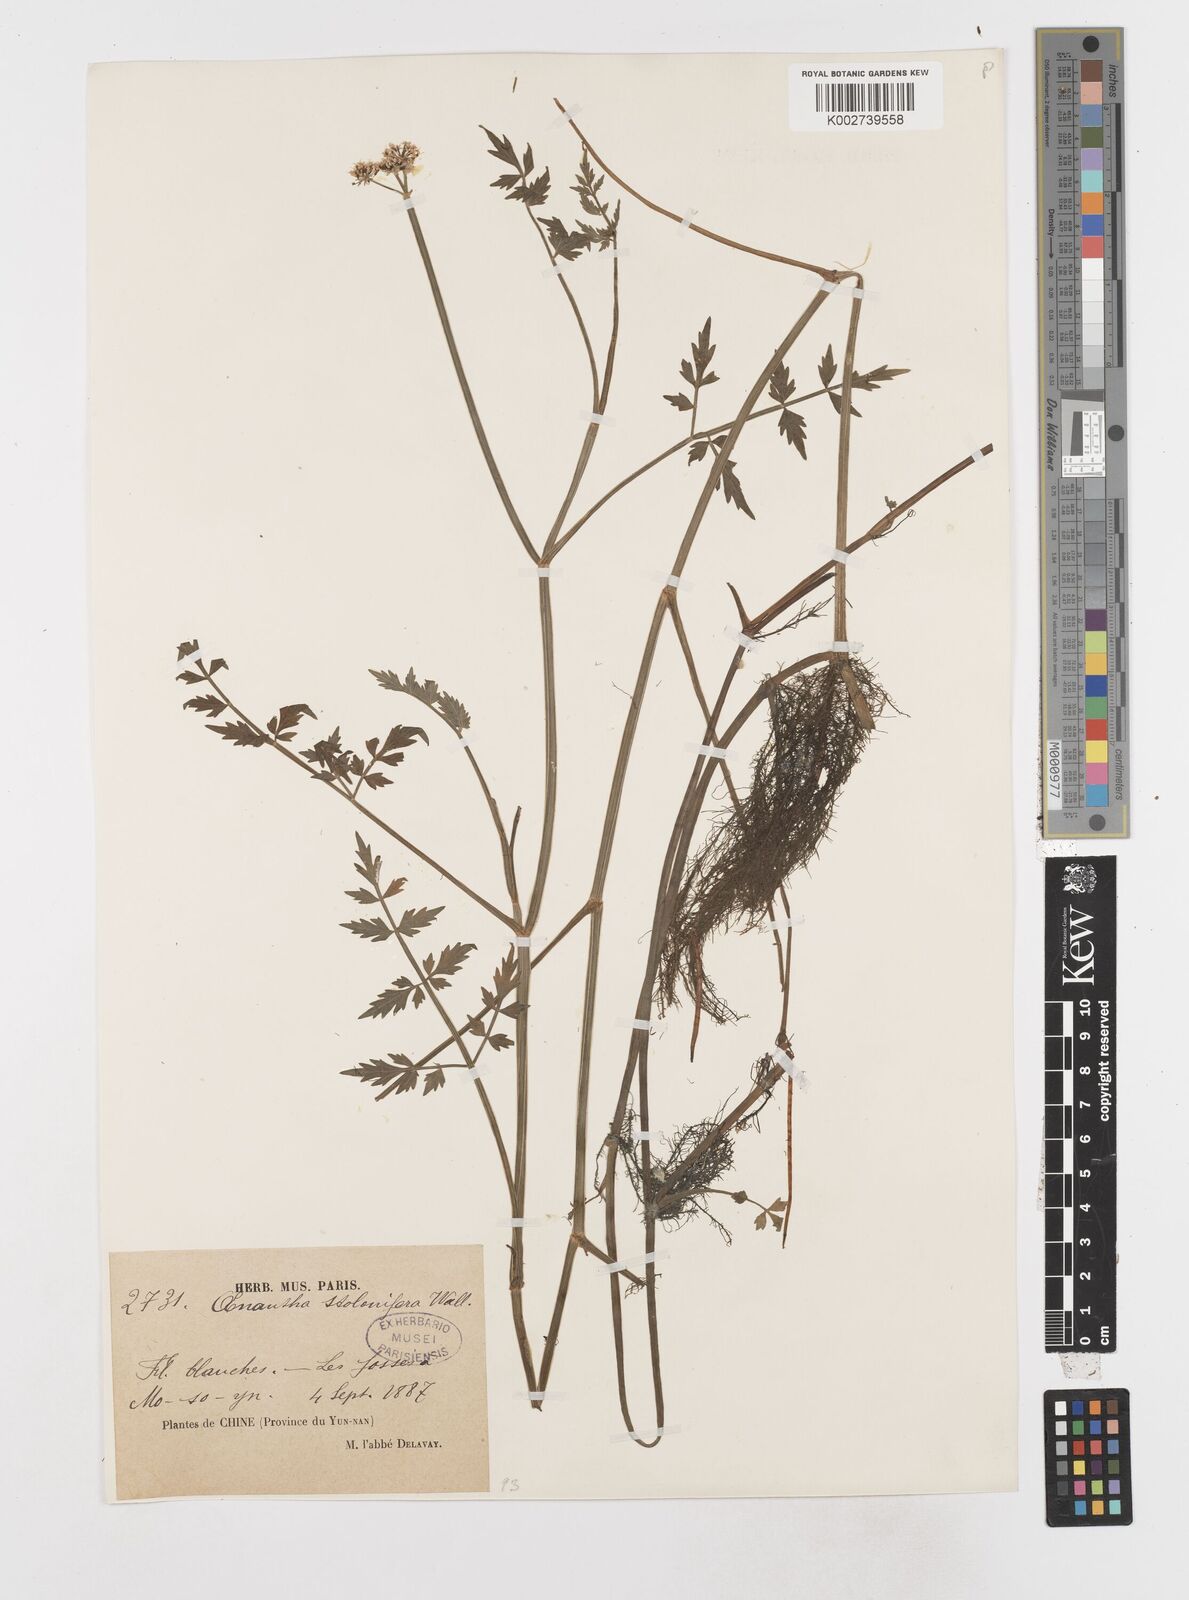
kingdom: Plantae
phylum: Tracheophyta
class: Magnoliopsida
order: Apiales
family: Apiaceae
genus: Oenanthe
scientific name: Oenanthe javanica
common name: Java water-dropwort
